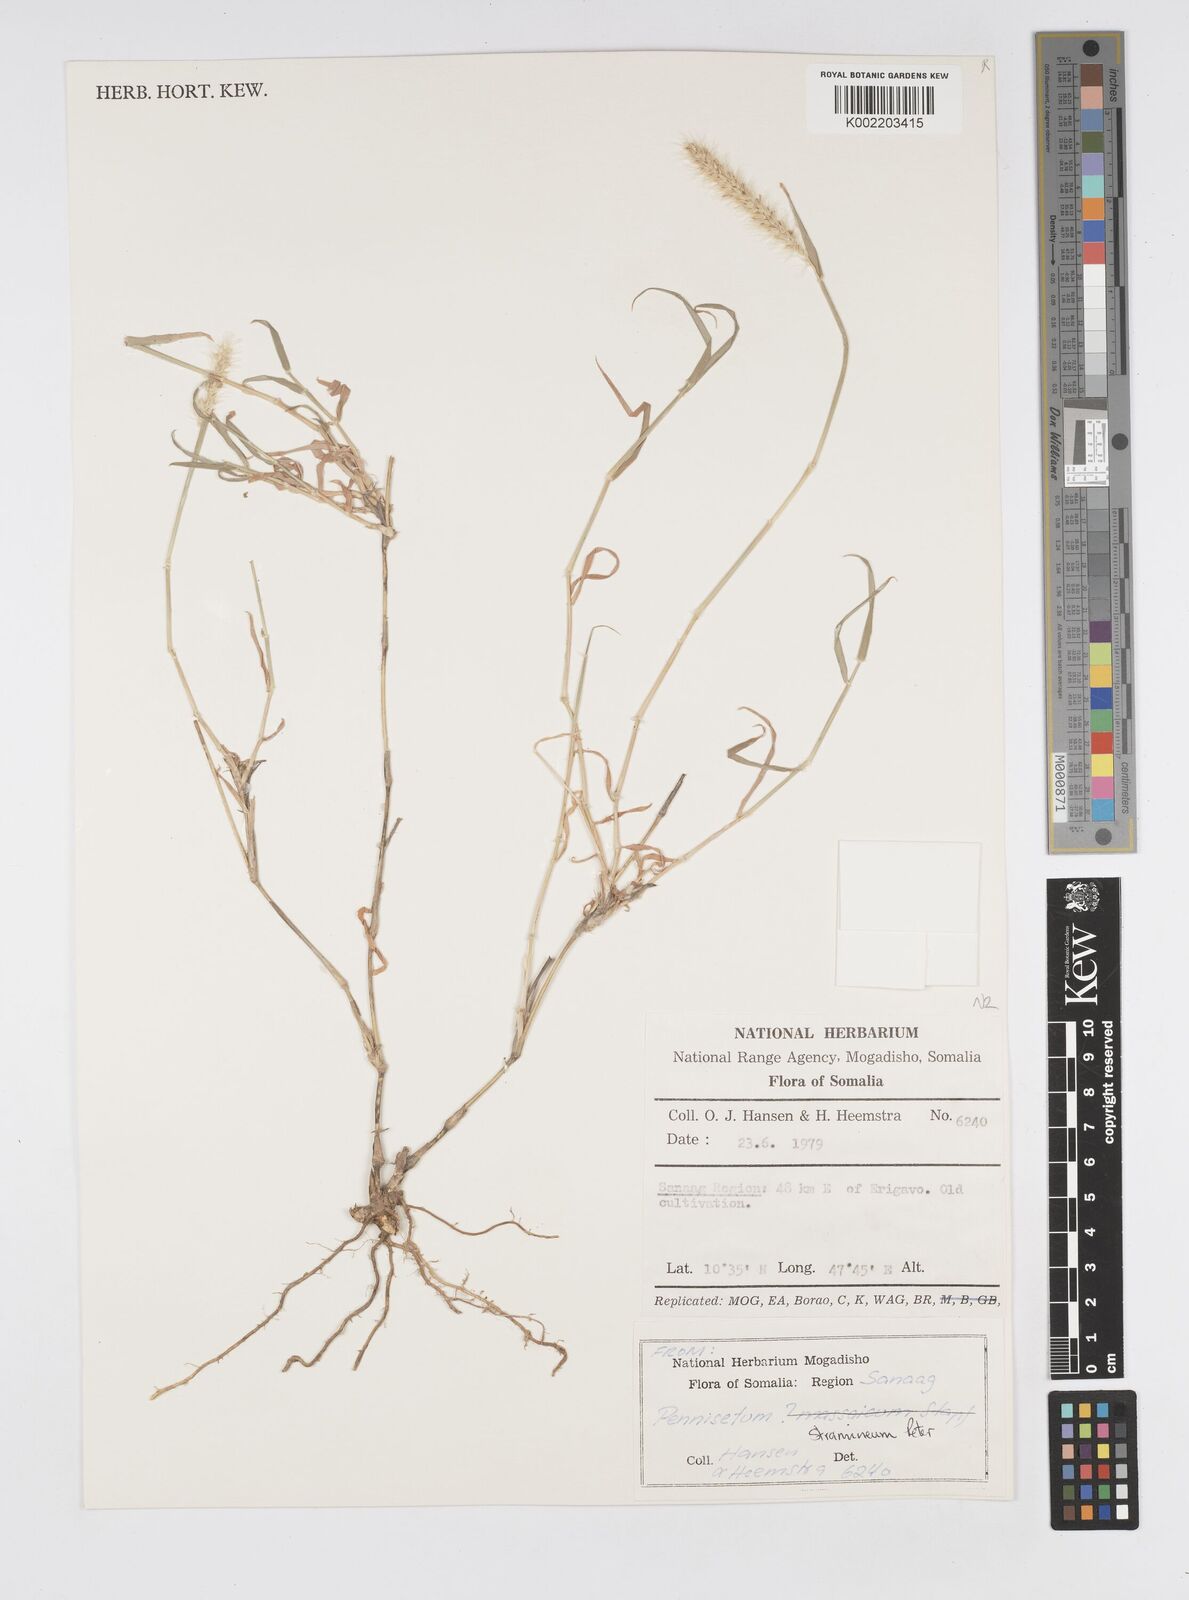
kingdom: Plantae
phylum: Tracheophyta
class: Liliopsida
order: Poales
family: Poaceae
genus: Cenchrus
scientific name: Cenchrus stramineus
